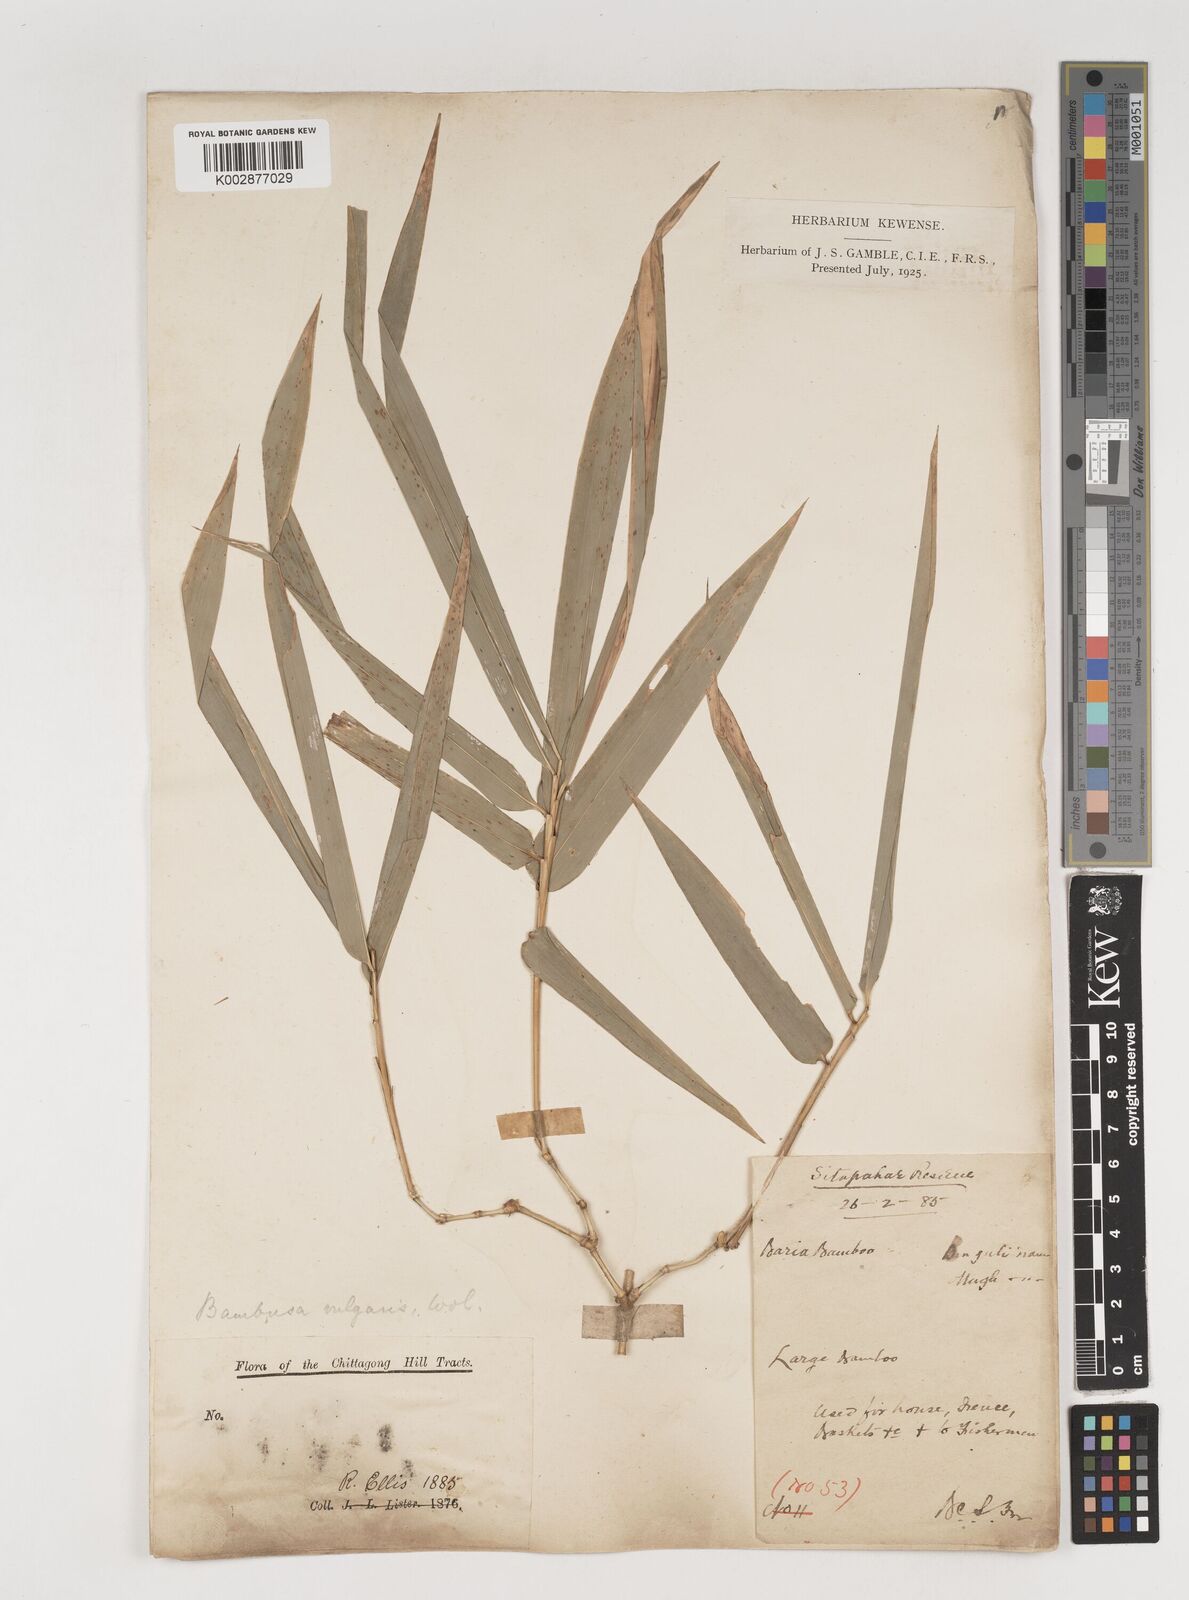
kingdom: Plantae
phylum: Tracheophyta
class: Liliopsida
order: Poales
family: Poaceae
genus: Bambusa
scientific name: Bambusa vulgaris
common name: Common bamboo
